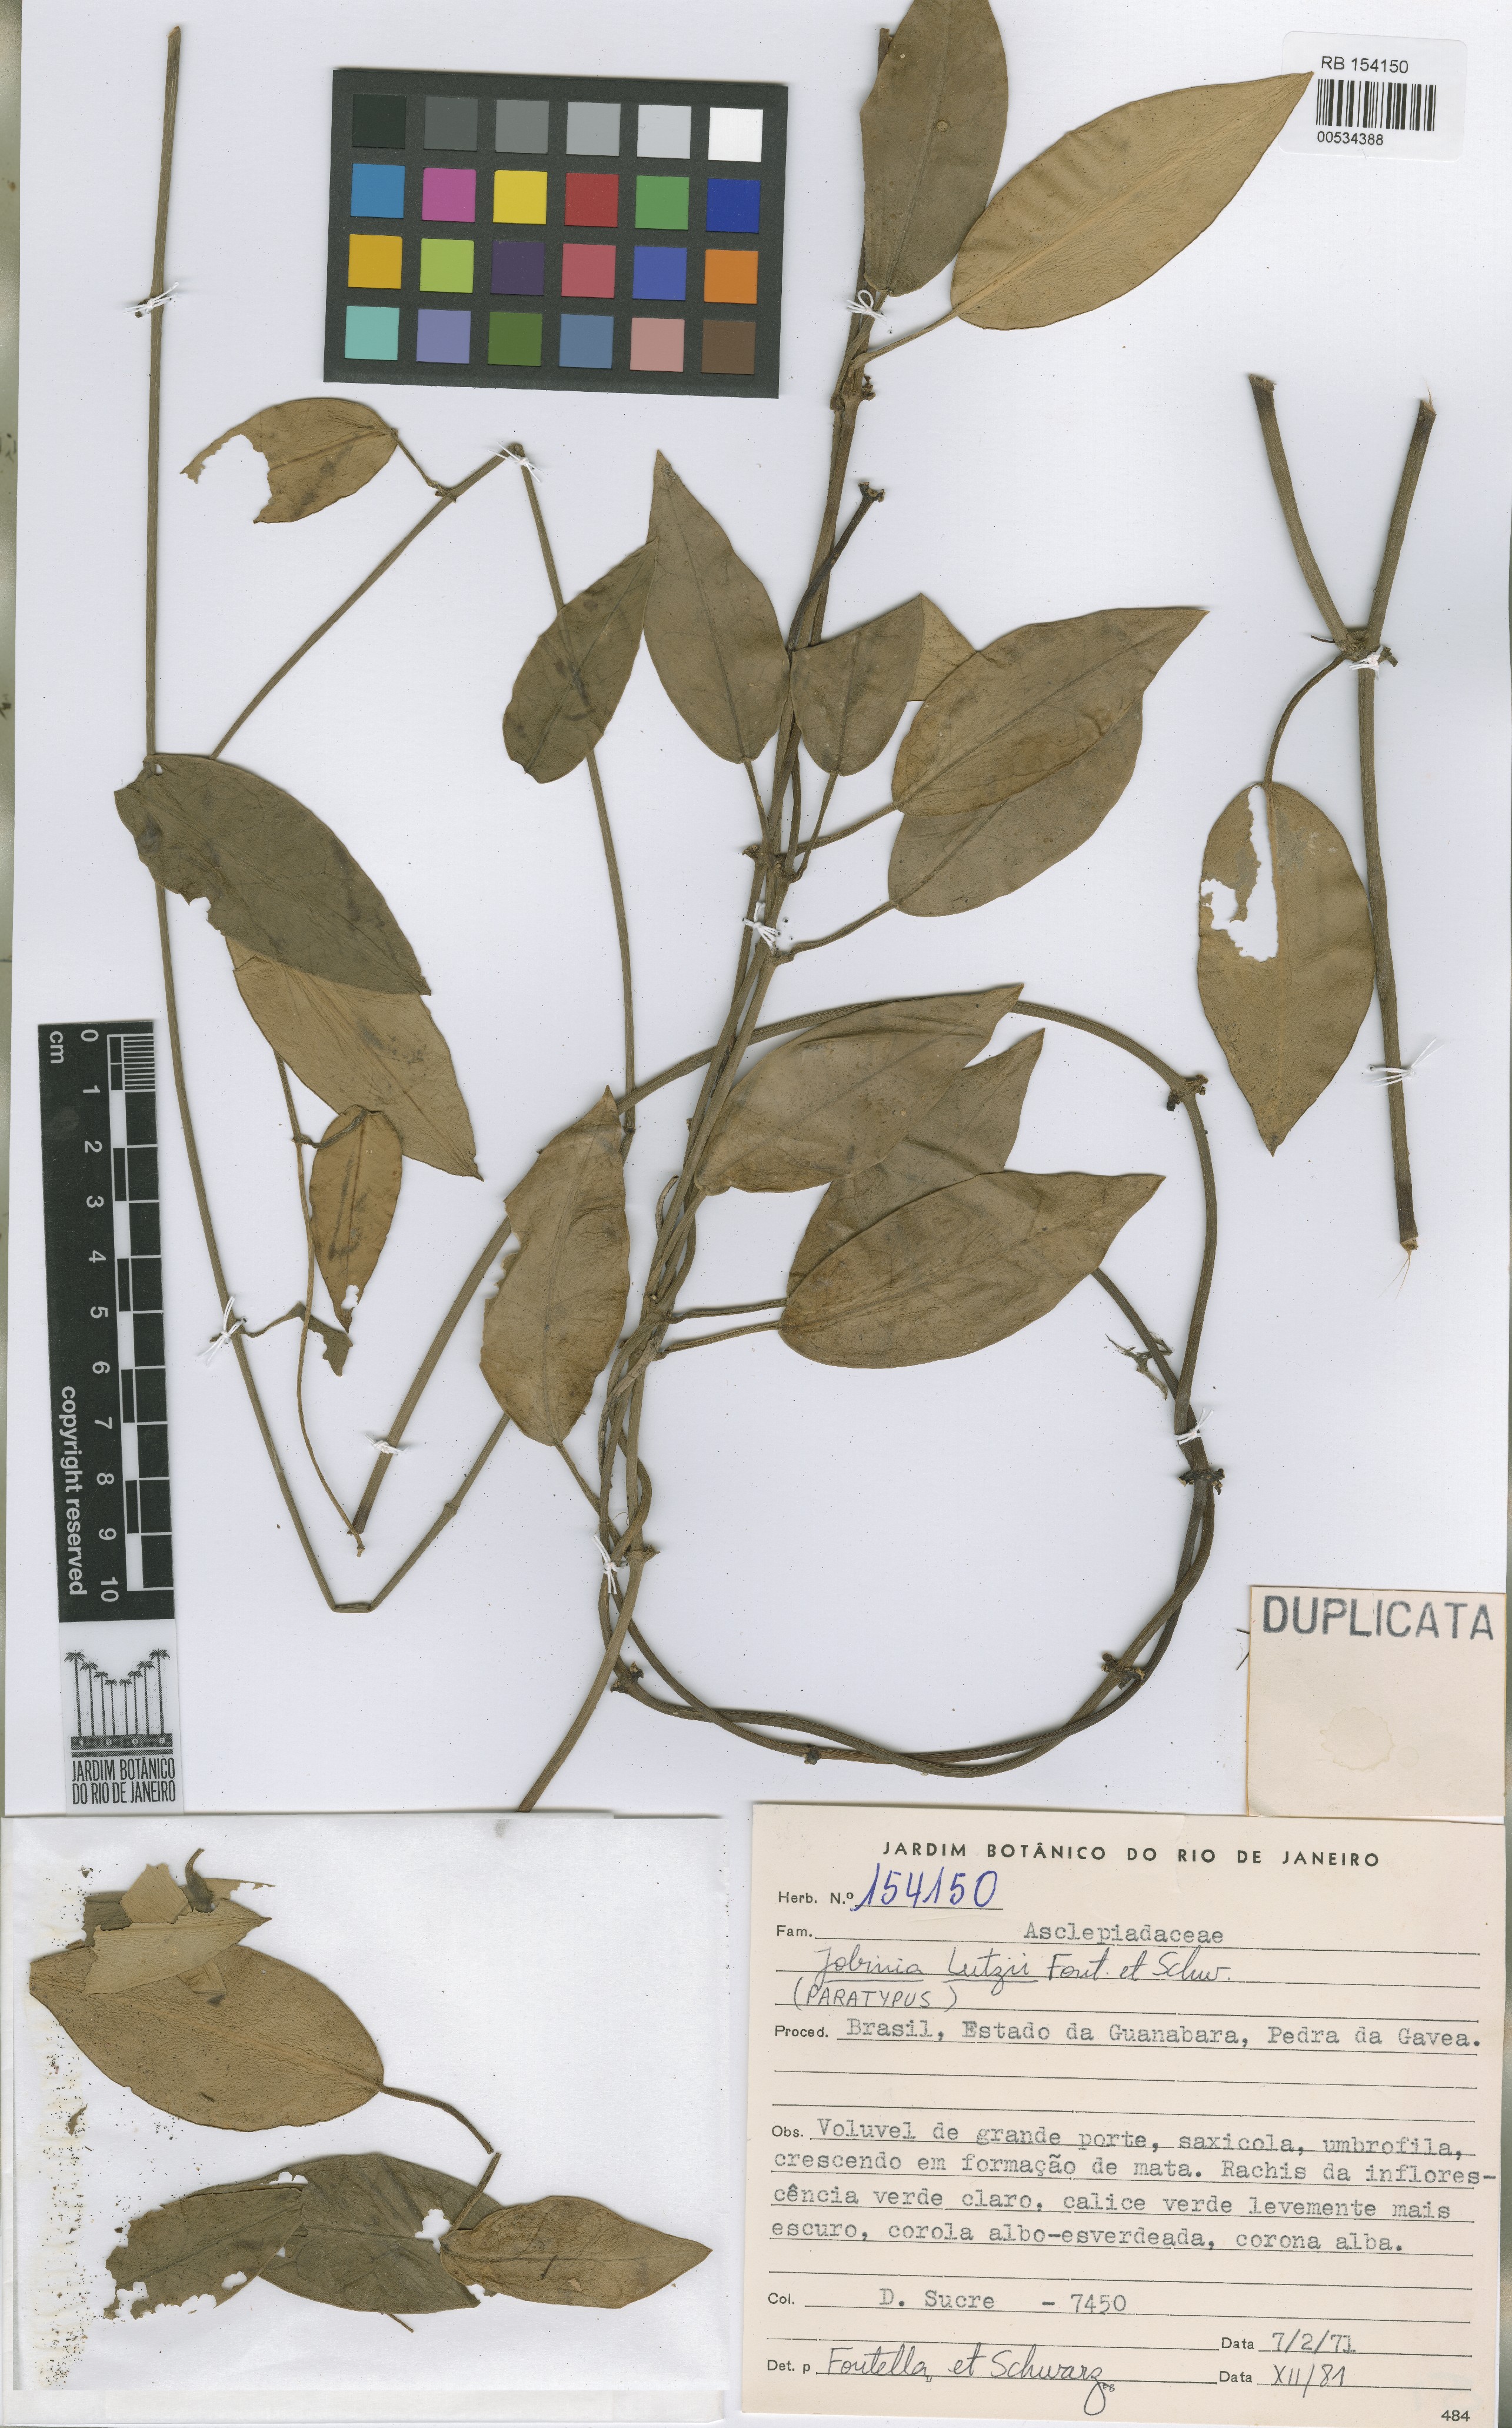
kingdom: Plantae
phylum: Tracheophyta
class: Magnoliopsida
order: Gentianales
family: Apocynaceae
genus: Jobinia
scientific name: Jobinia grandis
